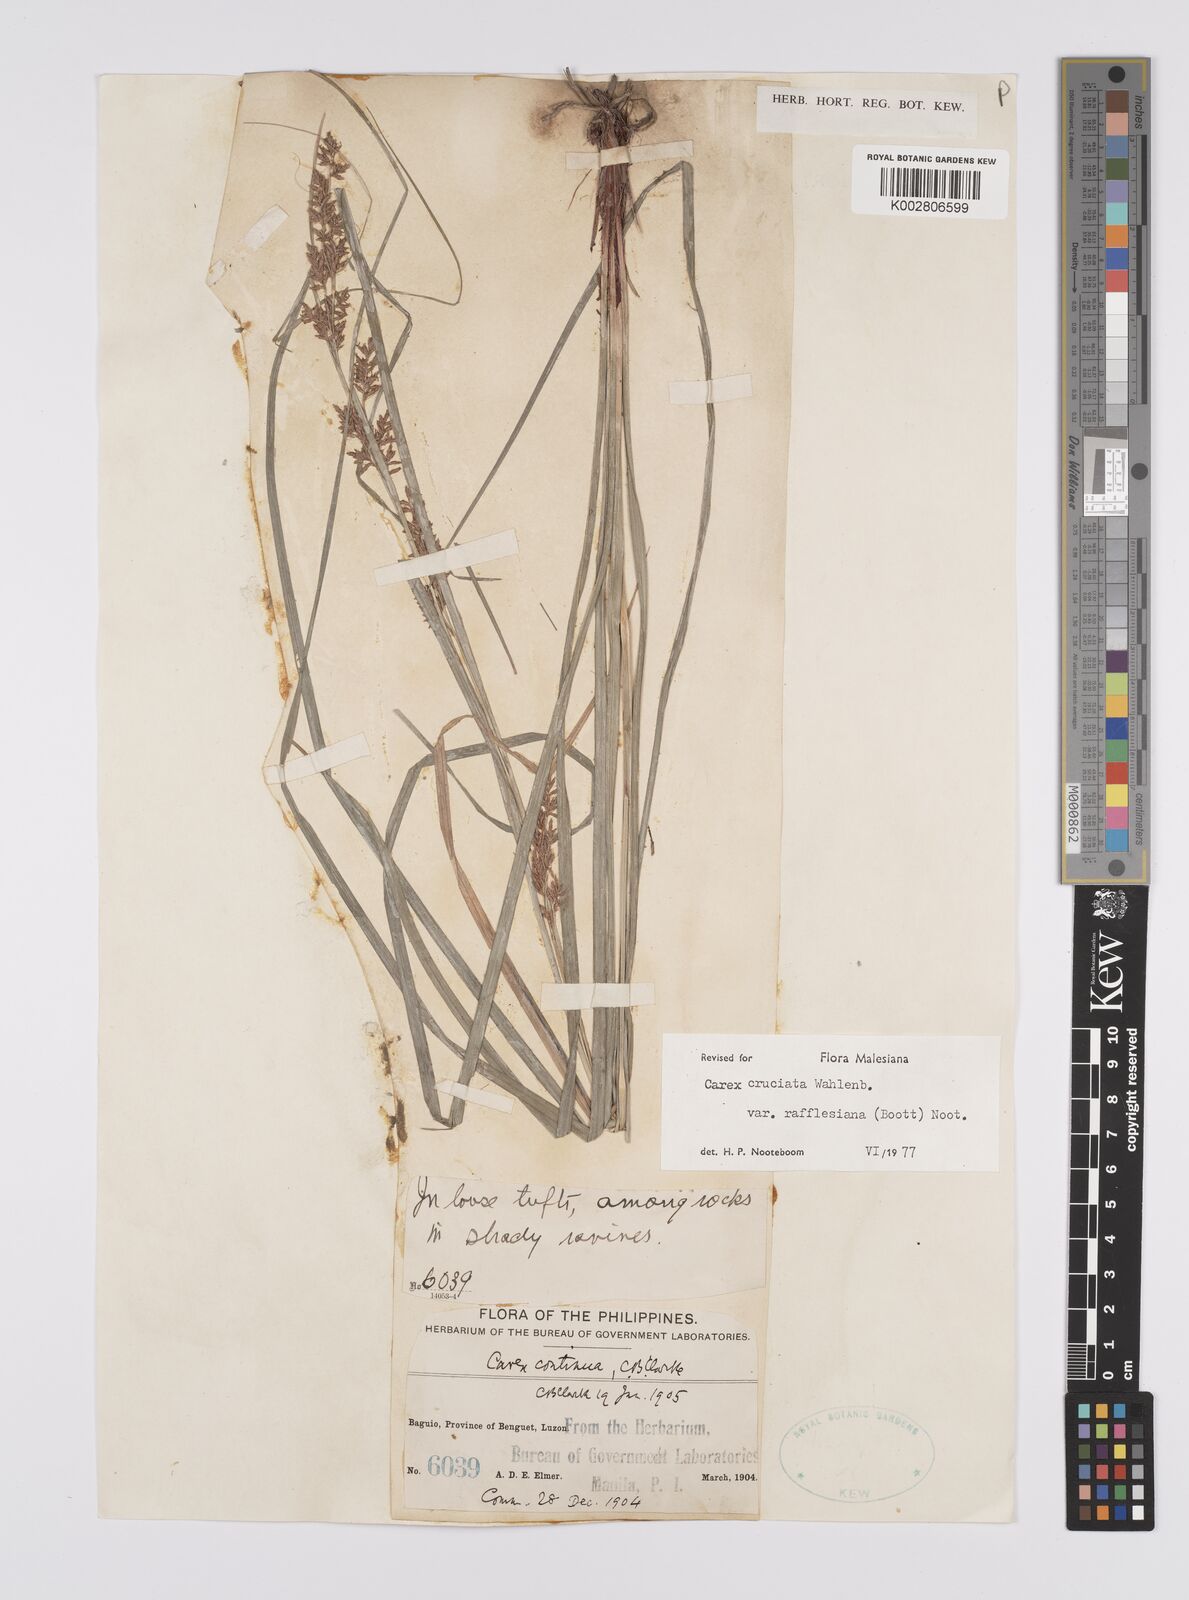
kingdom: Plantae
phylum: Tracheophyta
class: Liliopsida
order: Poales
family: Cyperaceae
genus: Carex
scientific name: Carex rafflesiana
